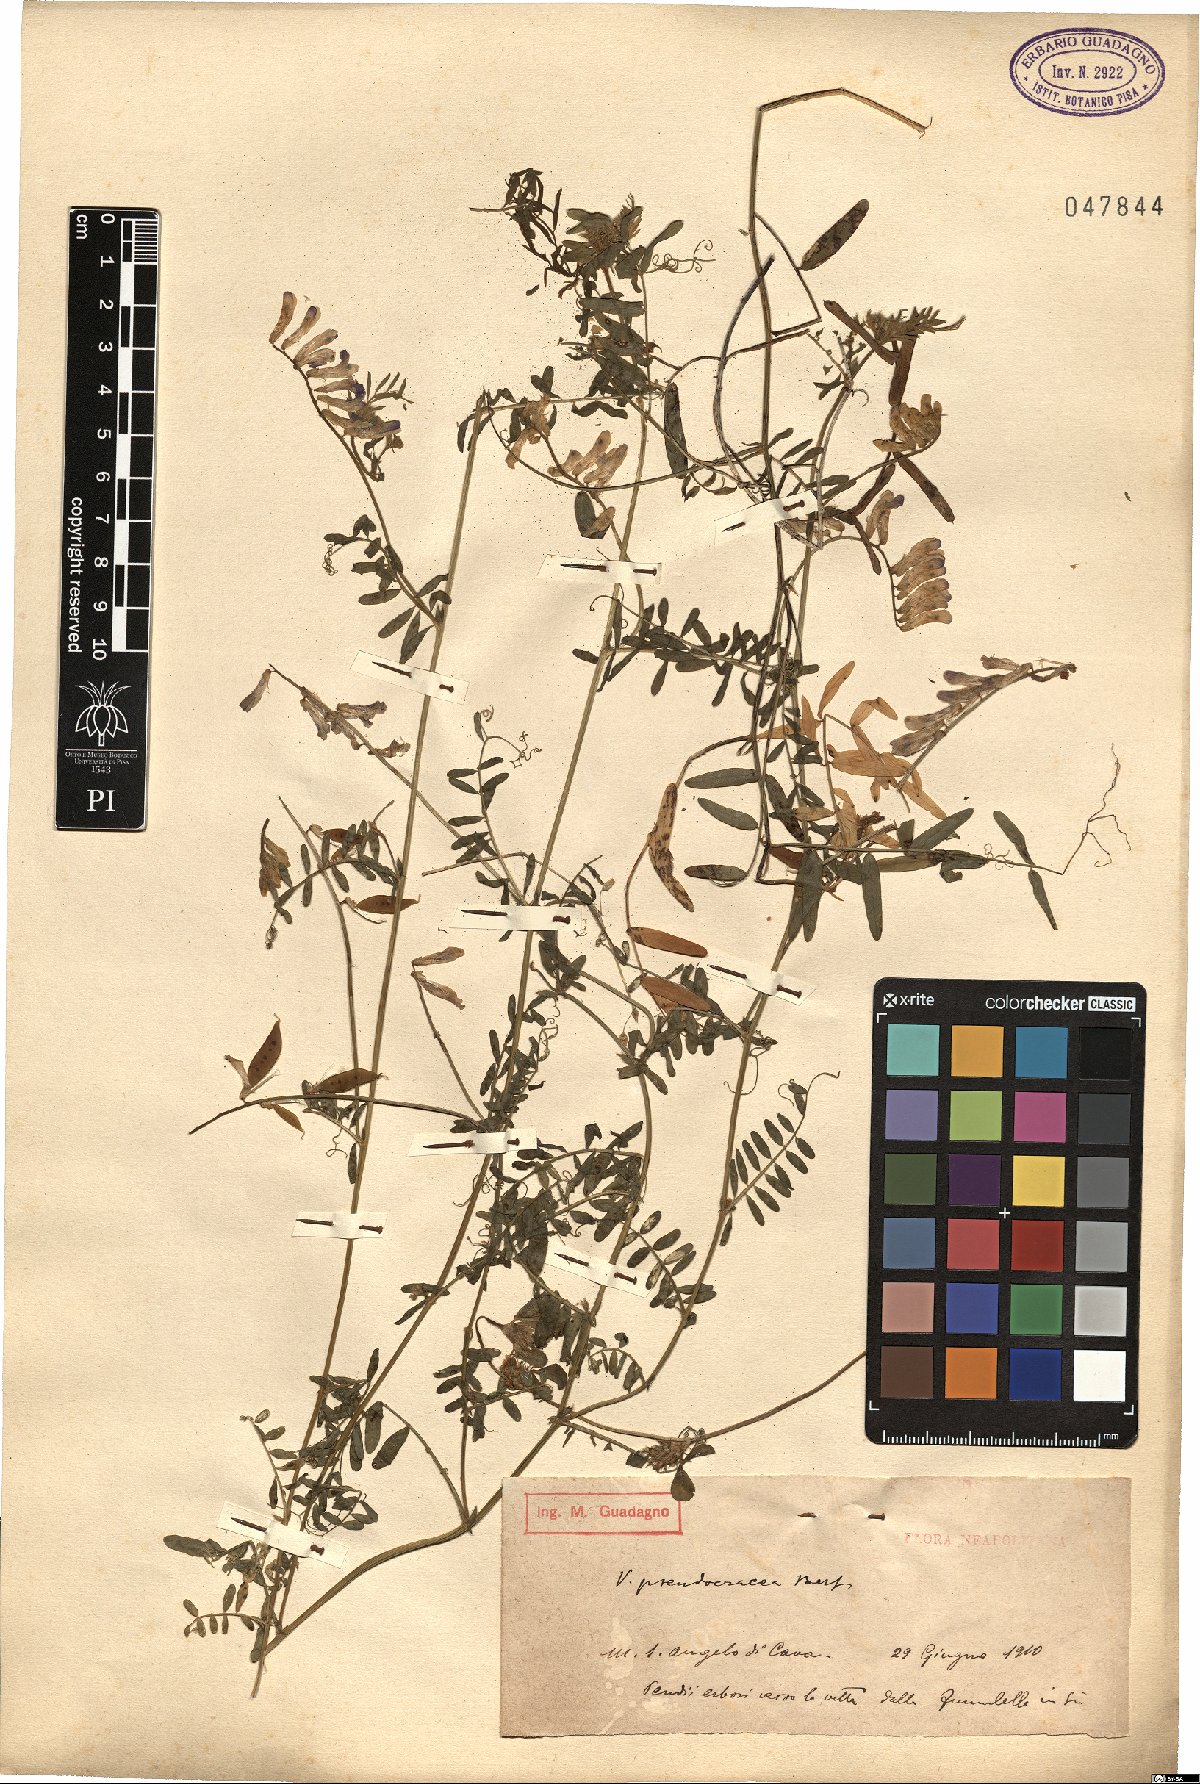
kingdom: Plantae
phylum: Tracheophyta
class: Magnoliopsida
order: Fabales
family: Fabaceae
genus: Vicia
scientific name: Vicia villosa
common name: Fodder vetch
